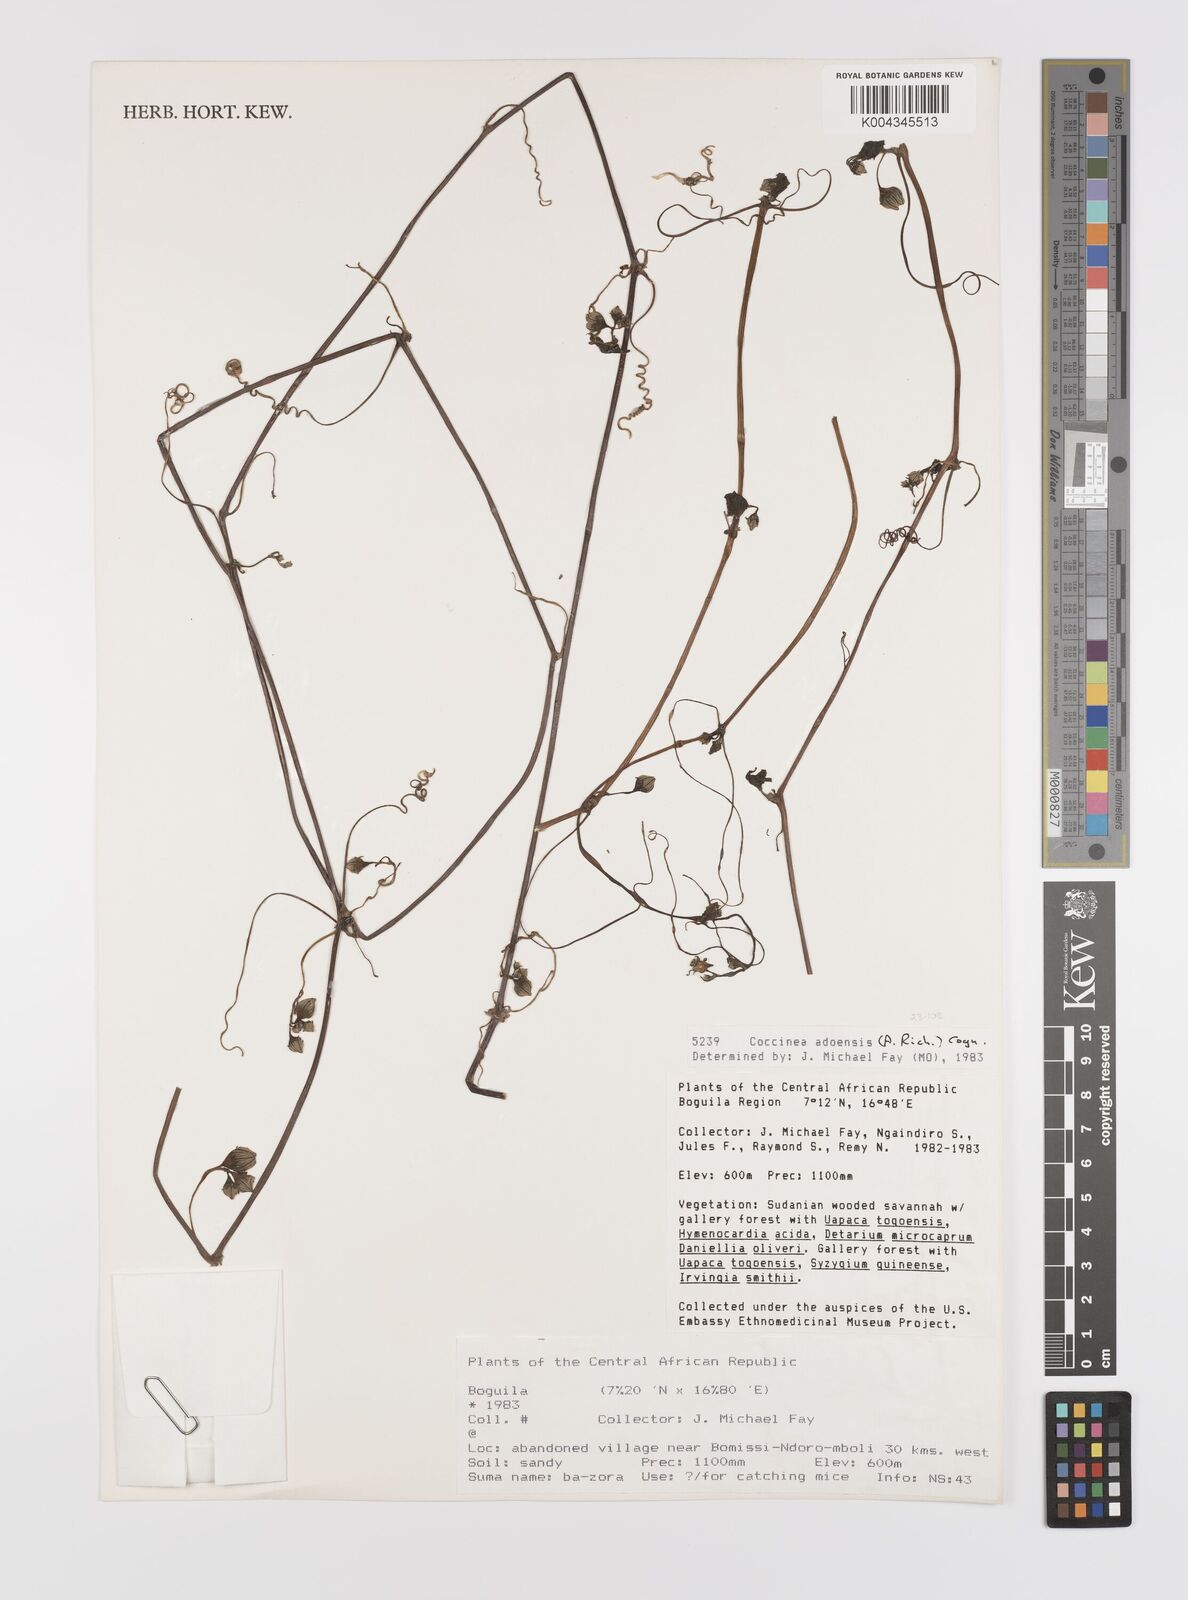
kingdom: Plantae
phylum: Tracheophyta
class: Magnoliopsida
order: Cucurbitales
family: Cucurbitaceae
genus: Coccinia
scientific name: Coccinia adoensis
